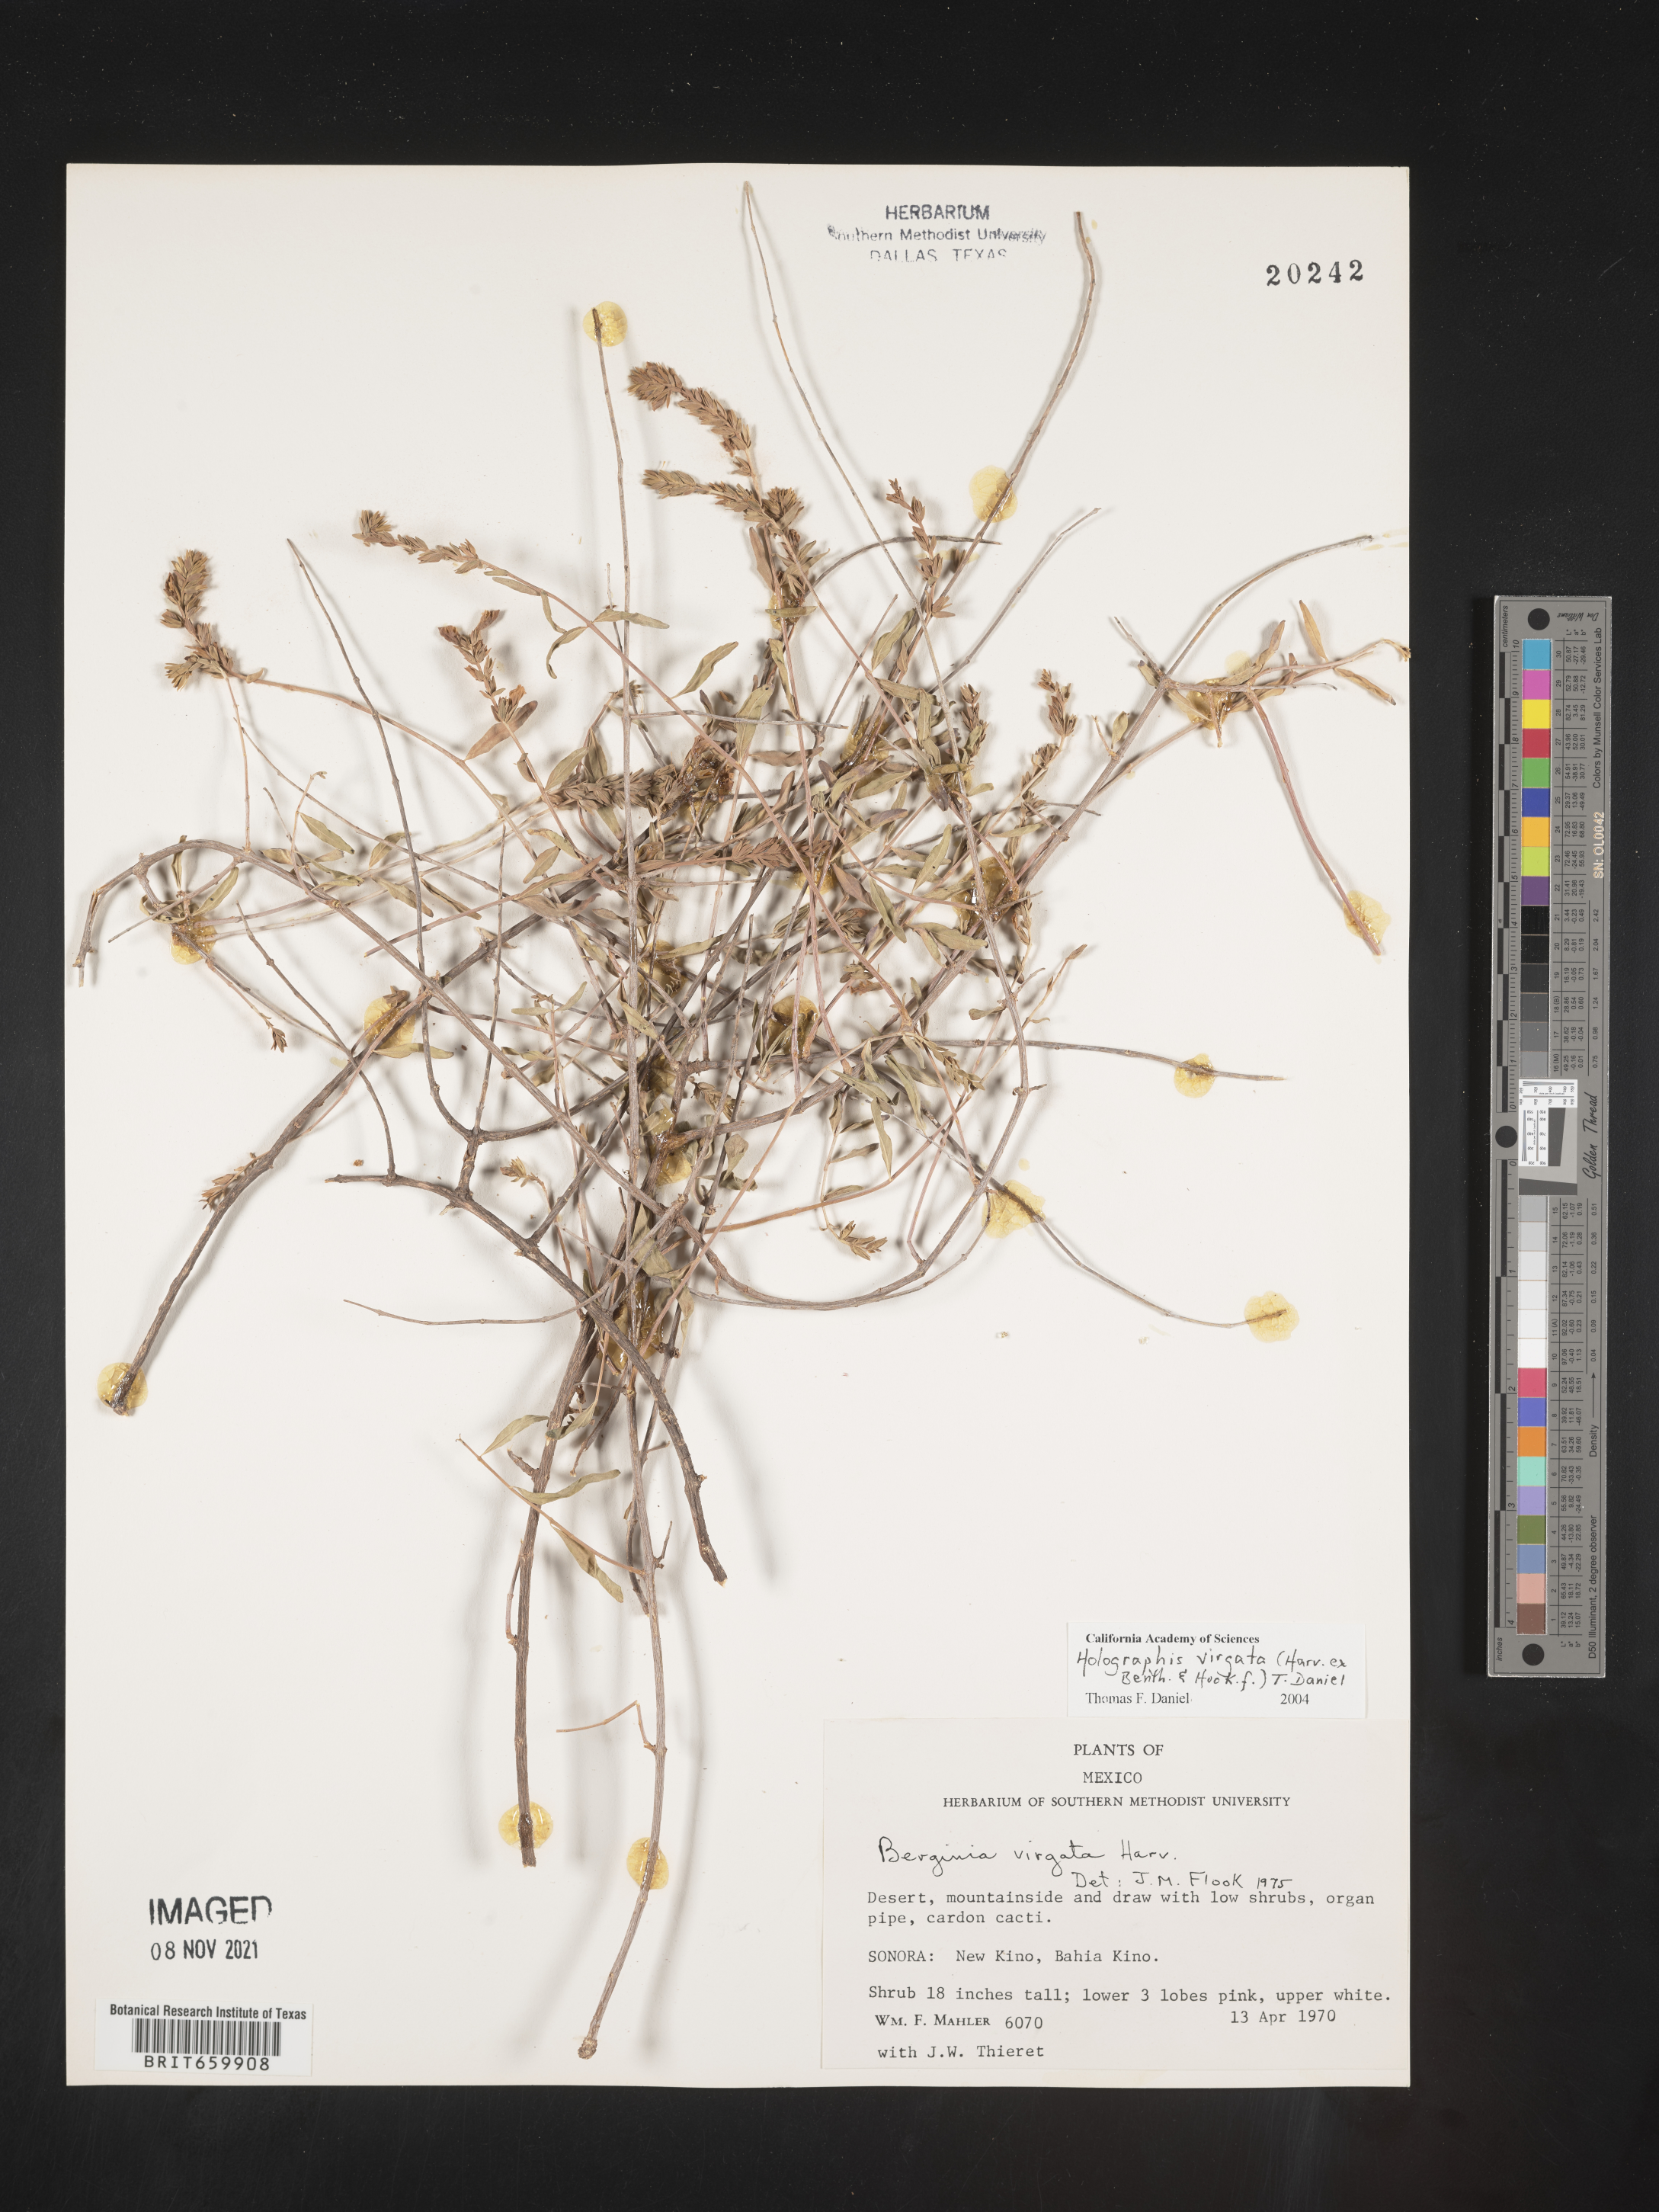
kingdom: Plantae
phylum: Tracheophyta
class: Magnoliopsida
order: Lamiales
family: Acanthaceae
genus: Holographis
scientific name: Holographis
